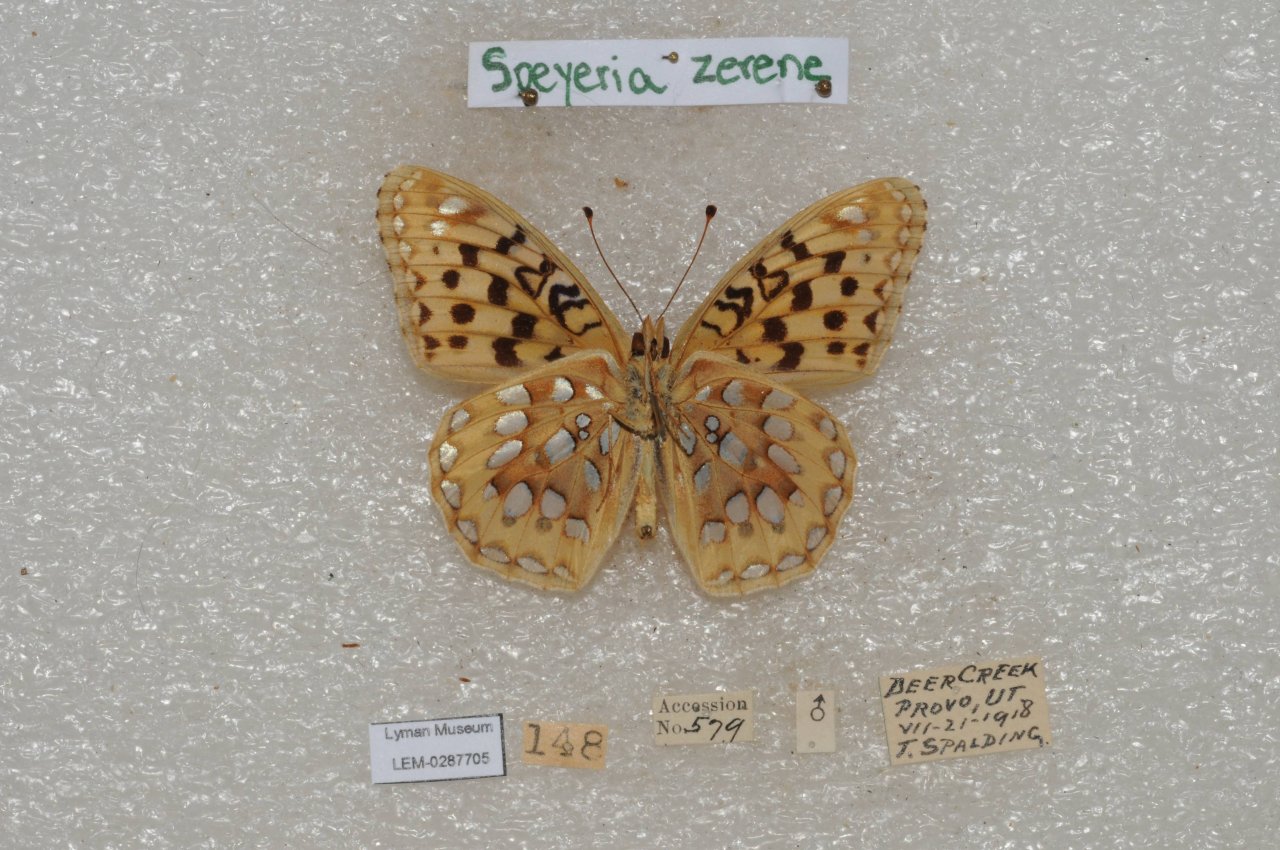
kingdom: Animalia
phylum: Arthropoda
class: Insecta
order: Lepidoptera
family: Nymphalidae
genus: Speyeria
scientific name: Speyeria zerene
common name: Zerene Fritillary
